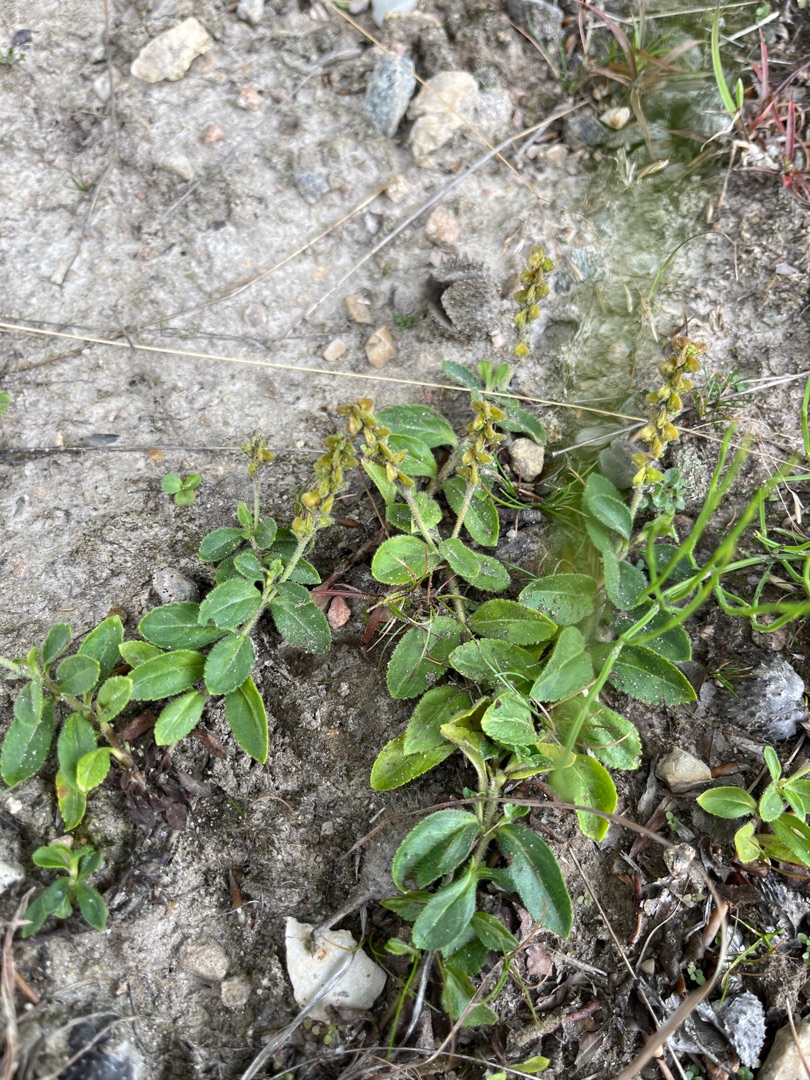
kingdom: Plantae
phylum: Tracheophyta
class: Magnoliopsida
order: Lamiales
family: Plantaginaceae
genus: Veronica
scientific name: Veronica officinalis
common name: Læge-ærenpris
